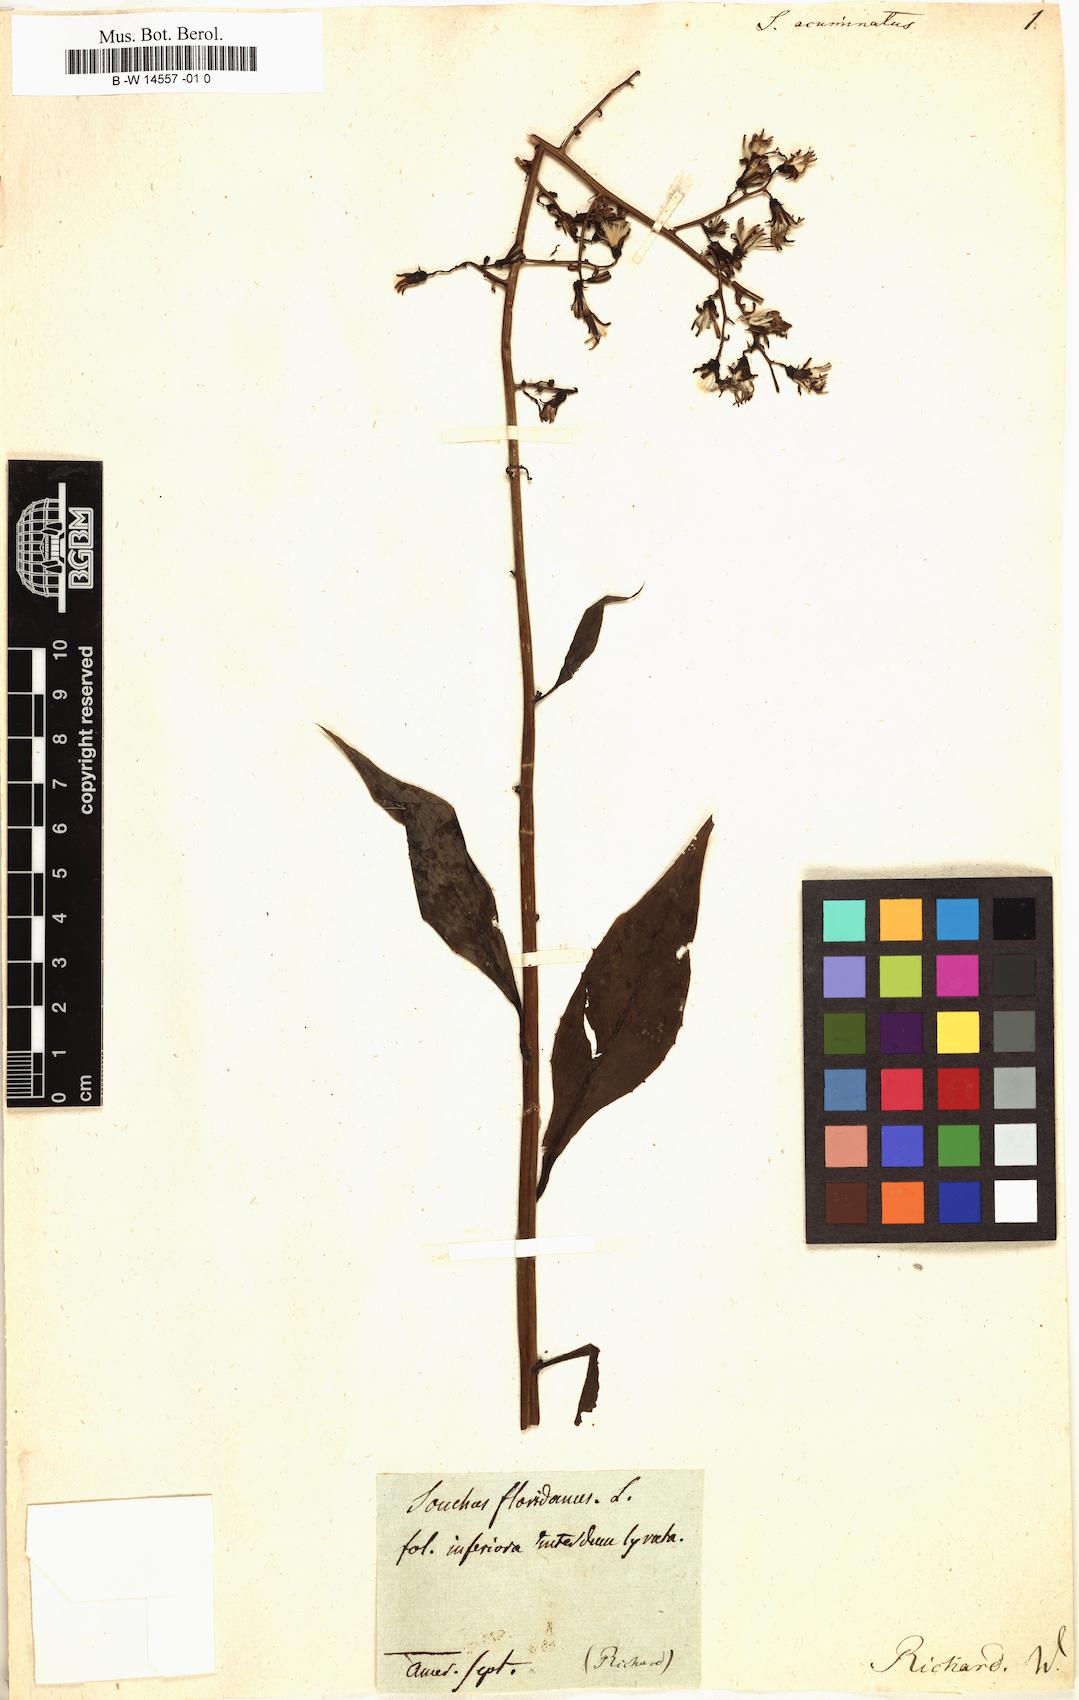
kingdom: Plantae
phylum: Tracheophyta
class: Magnoliopsida
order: Asterales
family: Asteraceae
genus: Sonchus
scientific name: Sonchus acuminatus
